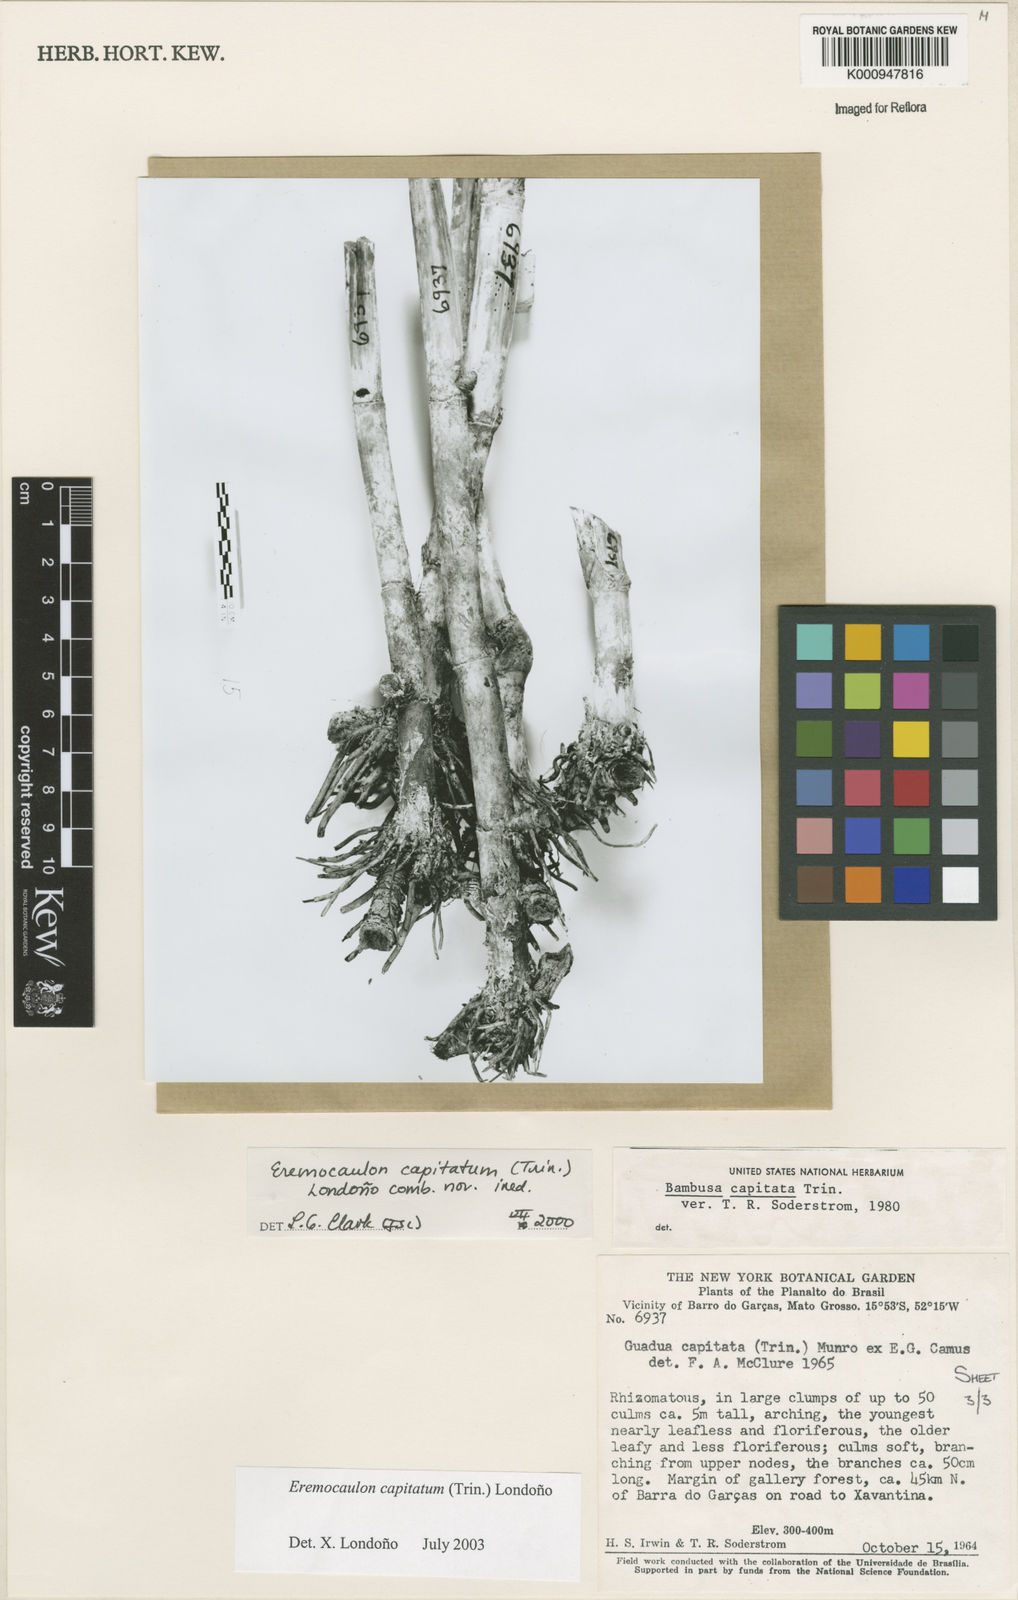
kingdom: Plantae
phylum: Tracheophyta
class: Liliopsida
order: Poales
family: Poaceae
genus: Eremocaulon
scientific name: Eremocaulon
